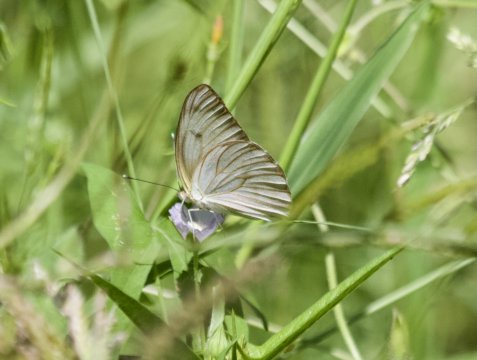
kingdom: Animalia
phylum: Arthropoda
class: Insecta
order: Lepidoptera
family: Pieridae
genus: Ascia
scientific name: Ascia monuste
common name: Great Southern White
